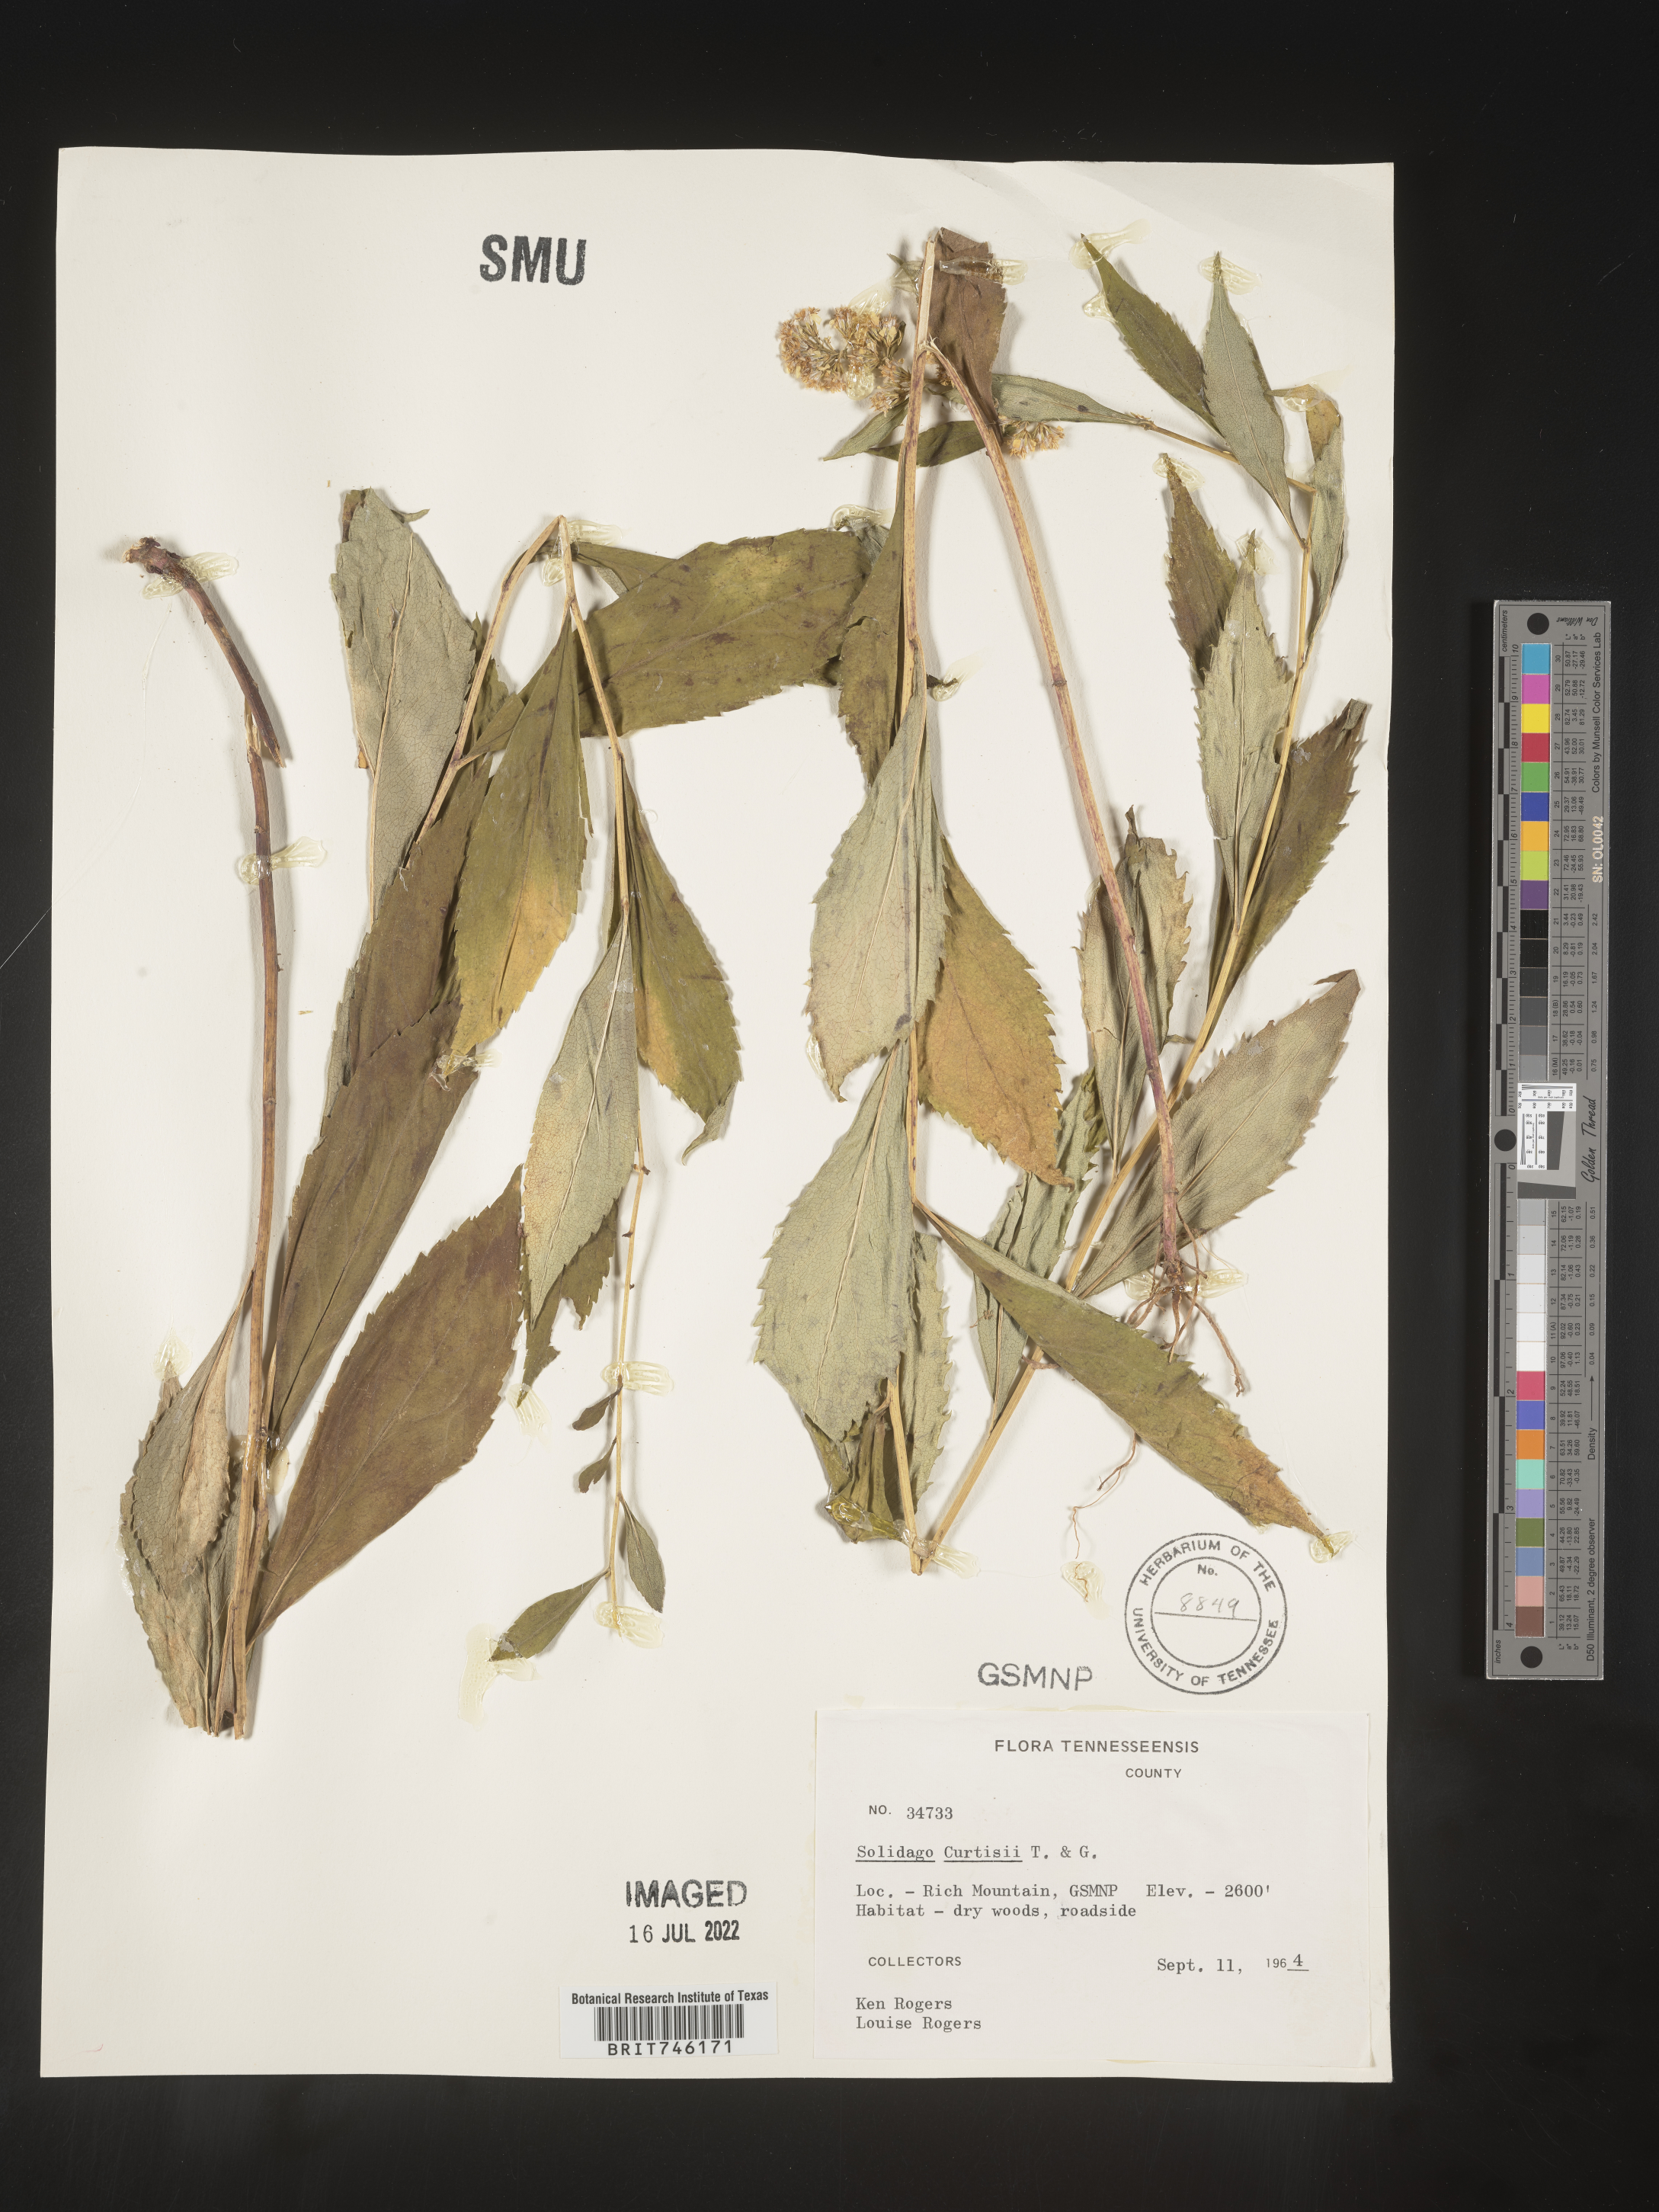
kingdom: Plantae
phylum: Tracheophyta
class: Magnoliopsida
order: Asterales
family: Asteraceae
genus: Solidago
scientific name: Solidago curtisii
